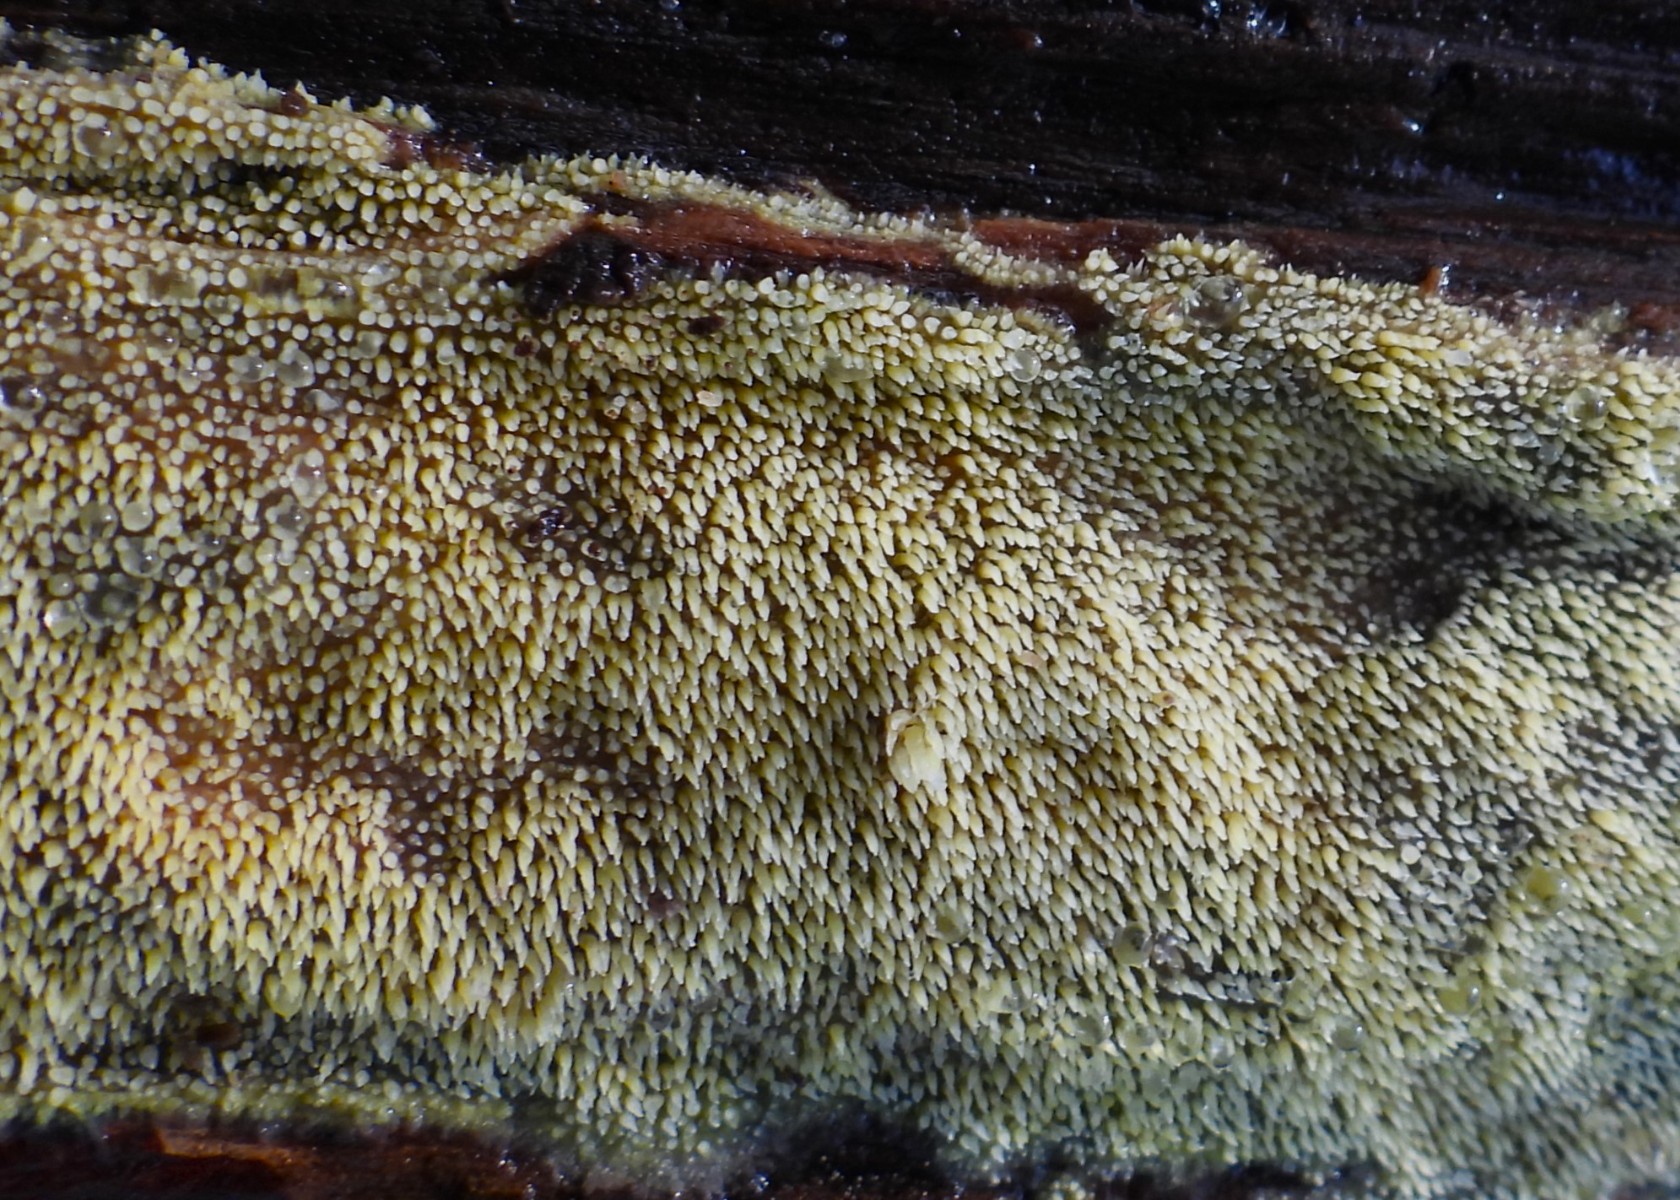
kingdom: Fungi
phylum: Basidiomycota
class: Agaricomycetes
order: Polyporales
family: Meruliaceae
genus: Mycoacia
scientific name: Mycoacia uda
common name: citrongul vokspig
